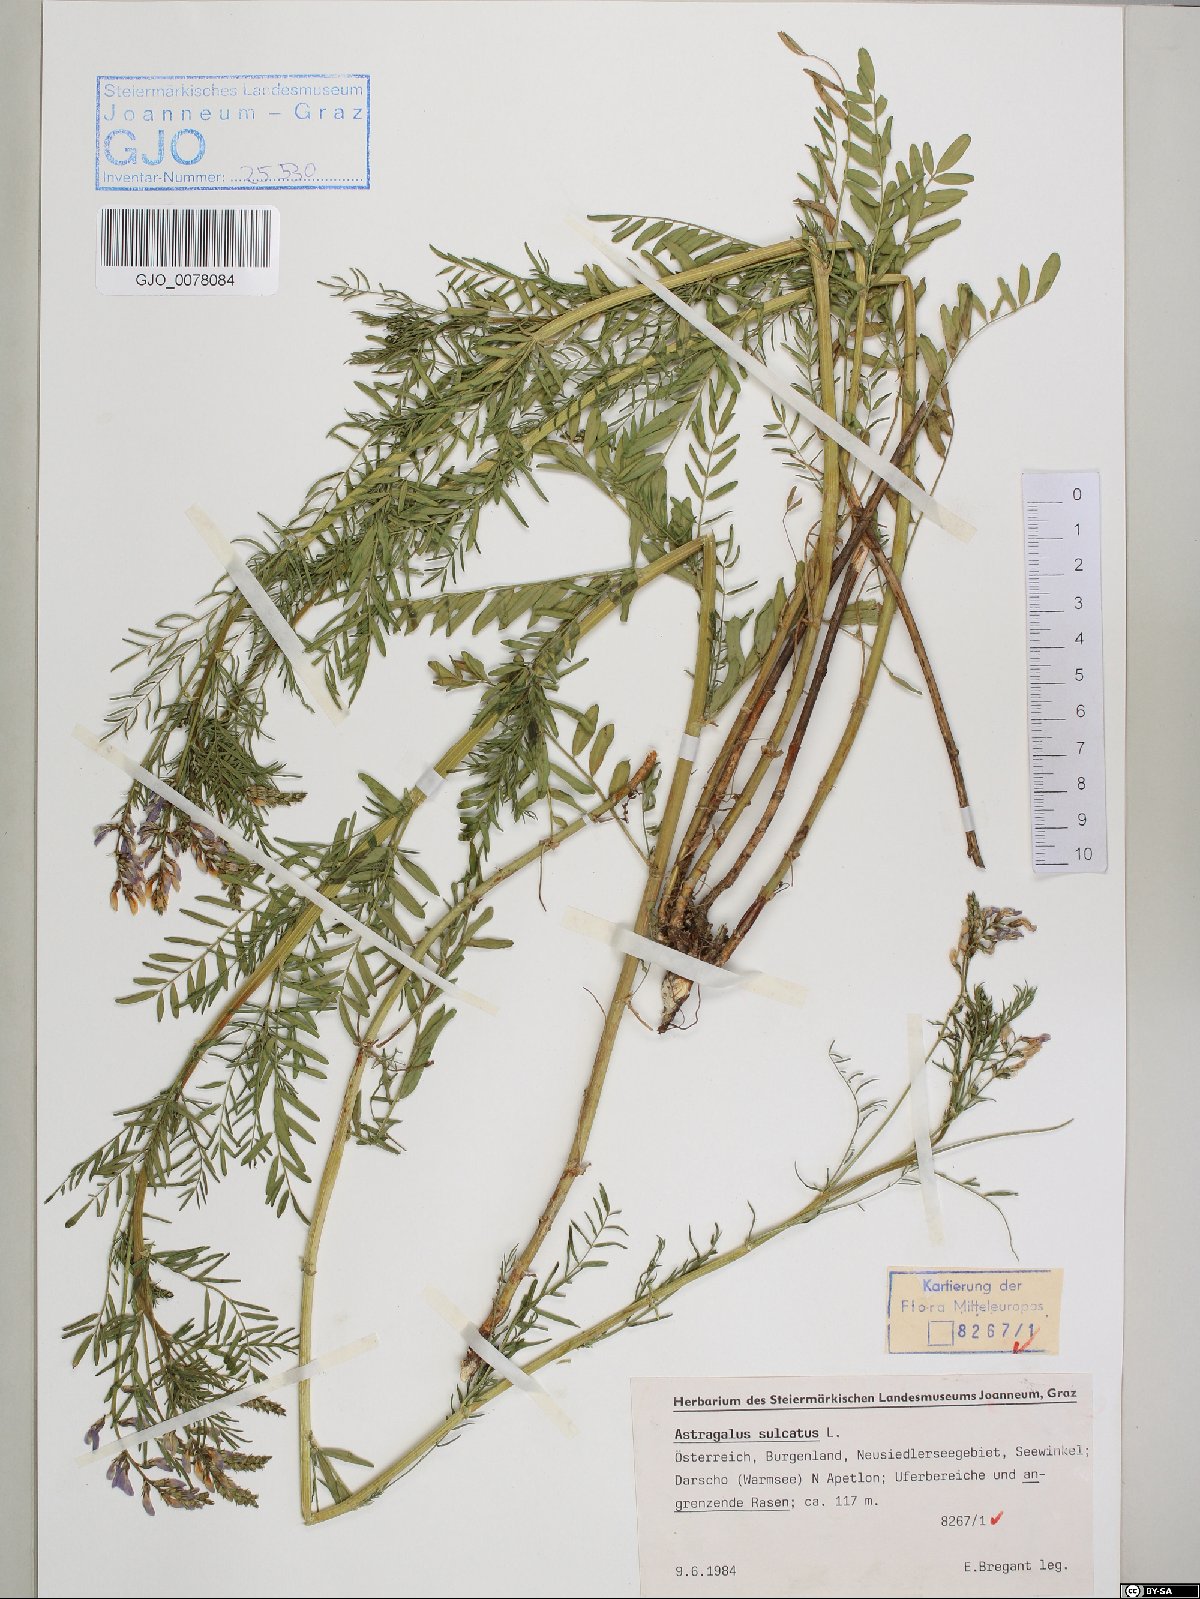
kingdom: Plantae
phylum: Tracheophyta
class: Magnoliopsida
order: Fabales
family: Fabaceae
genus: Astragalus
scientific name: Astragalus sulcatus
